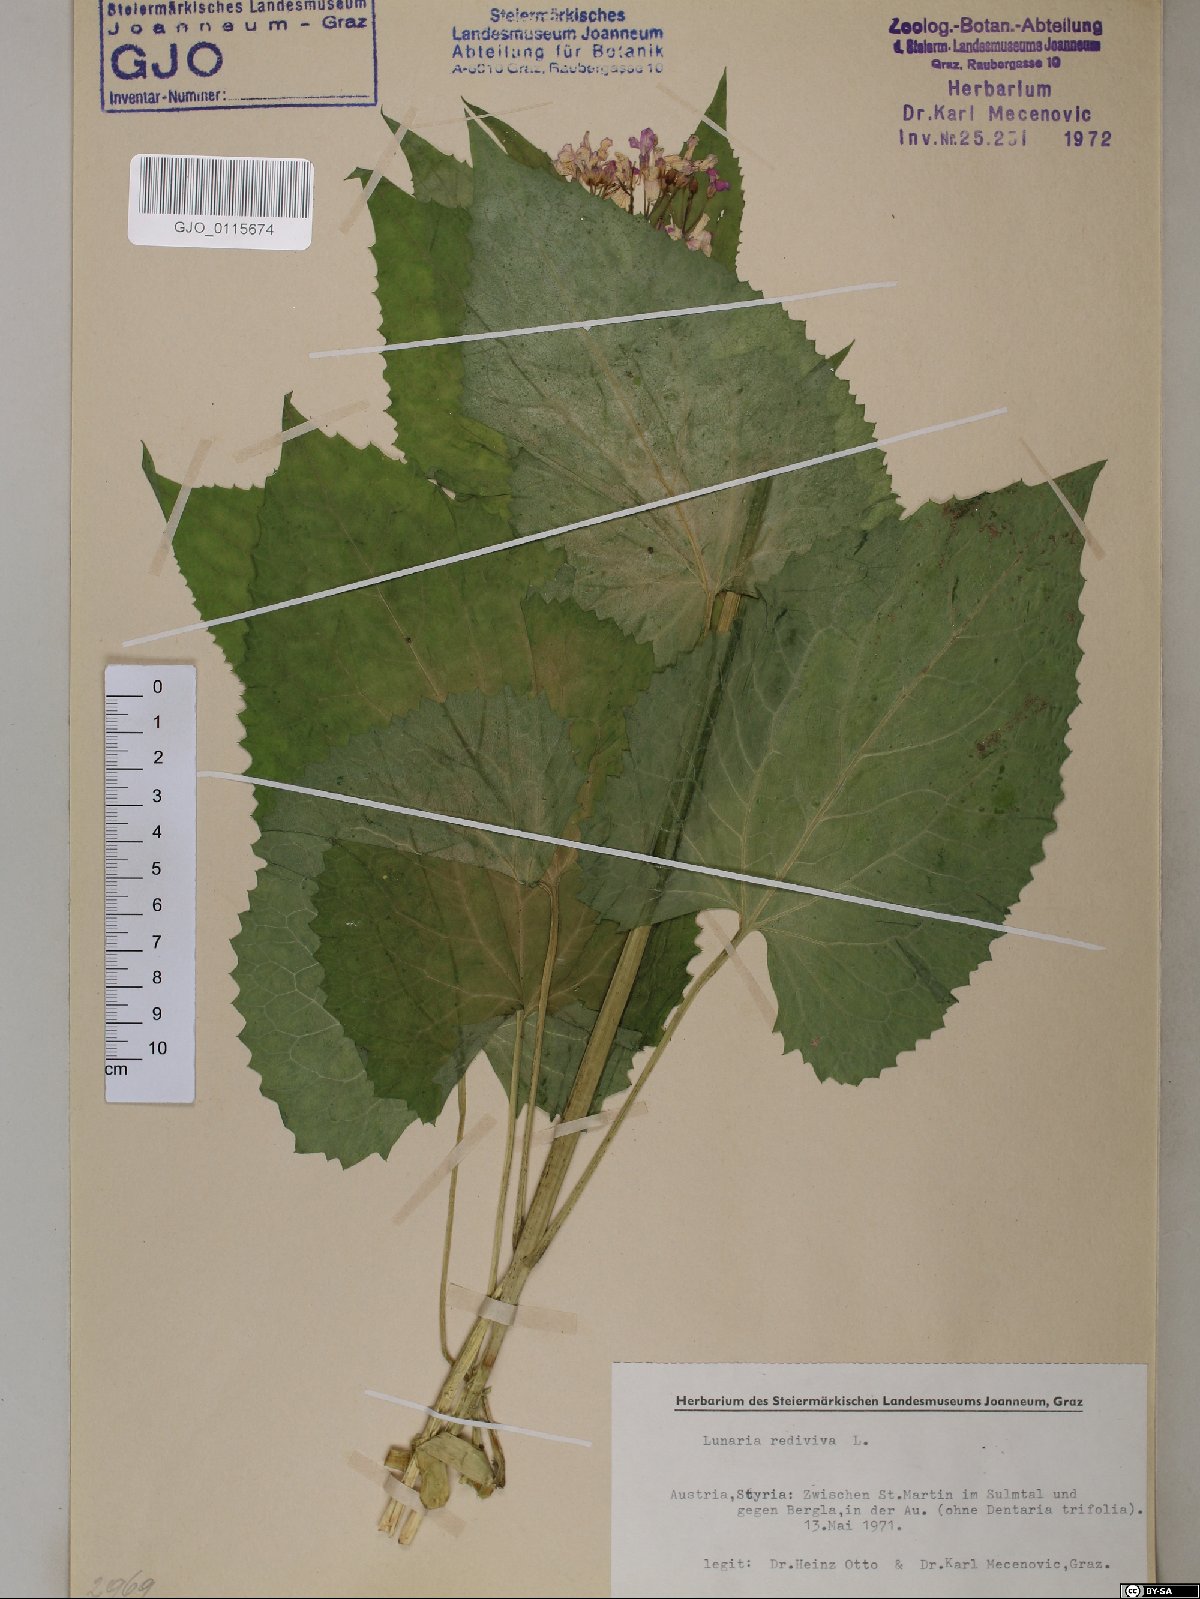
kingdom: Plantae
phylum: Tracheophyta
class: Magnoliopsida
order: Brassicales
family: Brassicaceae
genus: Lunaria
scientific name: Lunaria rediviva
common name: Perennial honesty
